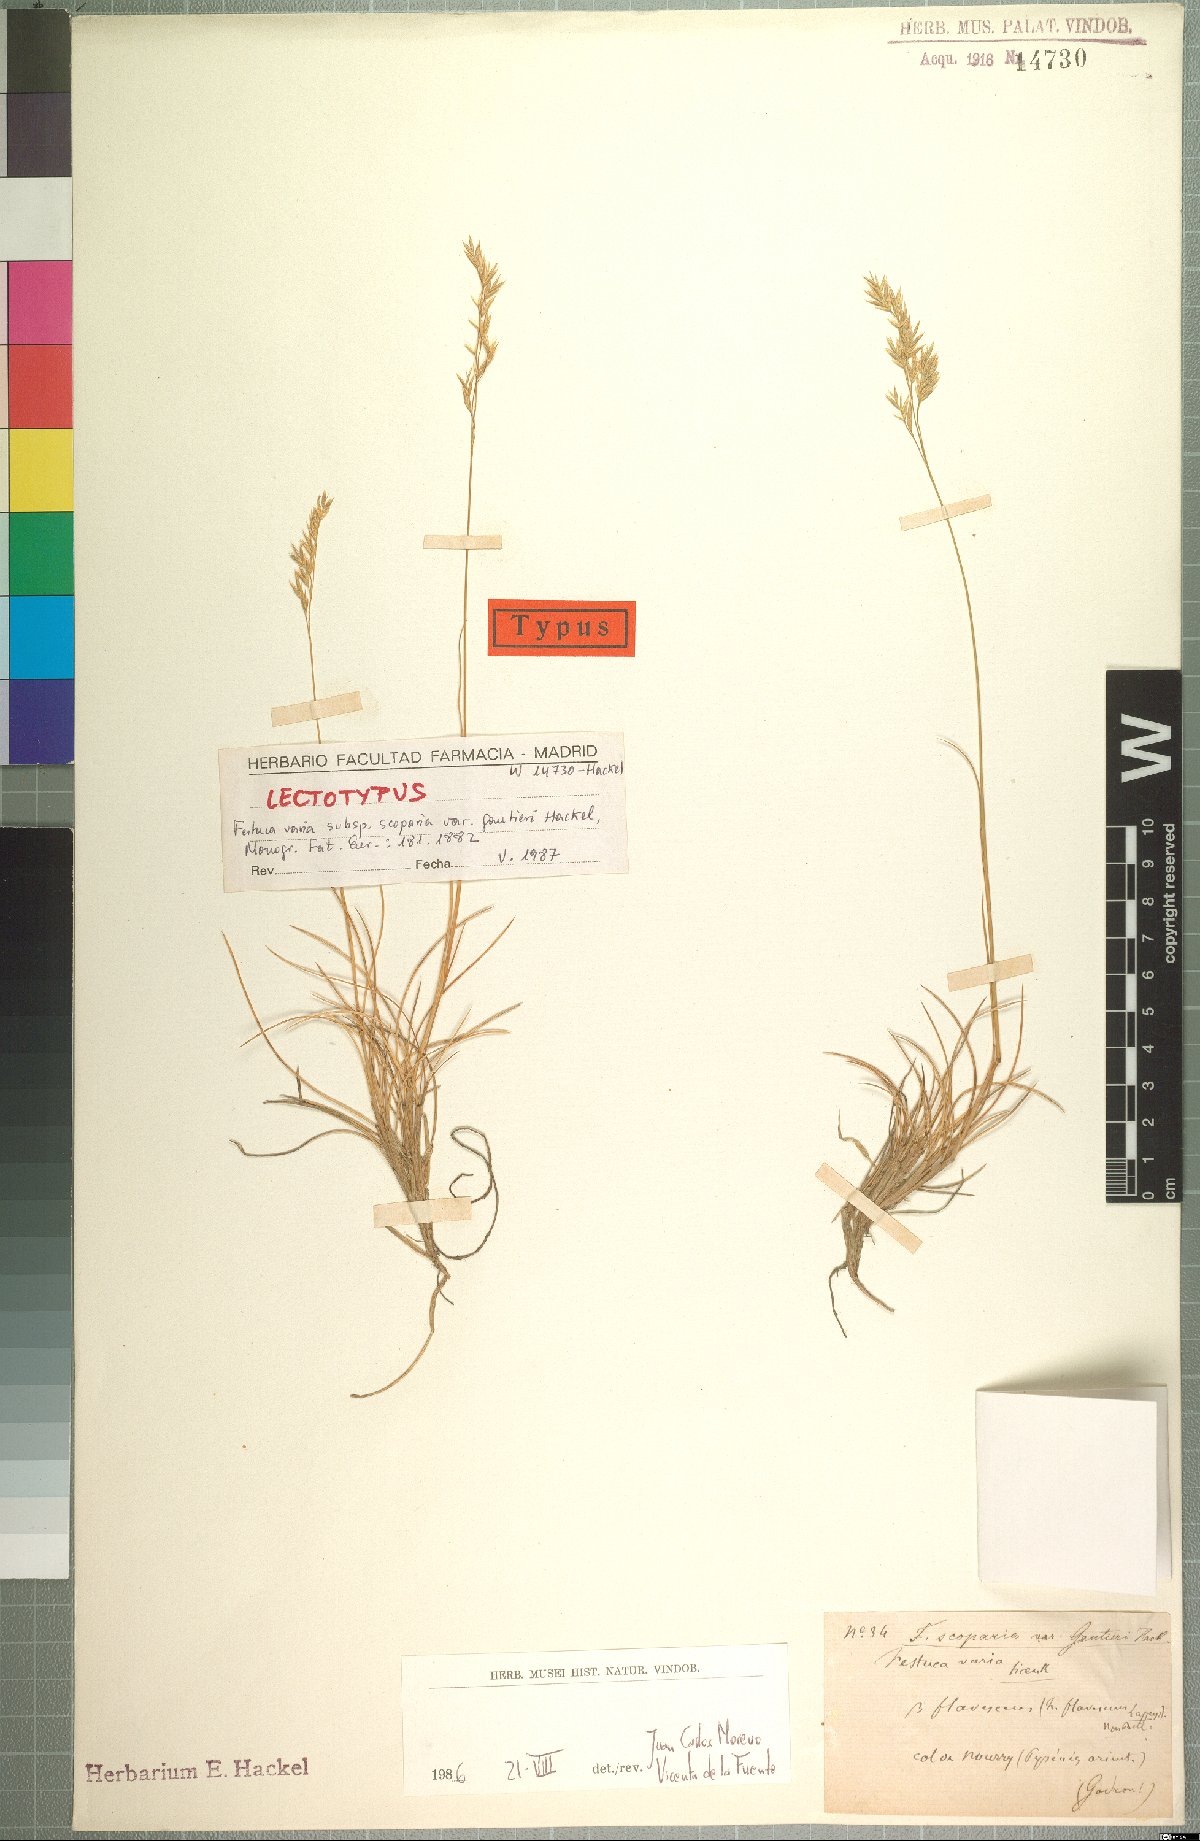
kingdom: Plantae
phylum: Tracheophyta
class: Liliopsida
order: Poales
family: Poaceae
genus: Festuca
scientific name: Festuca gautieri
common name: Spiky fescue
